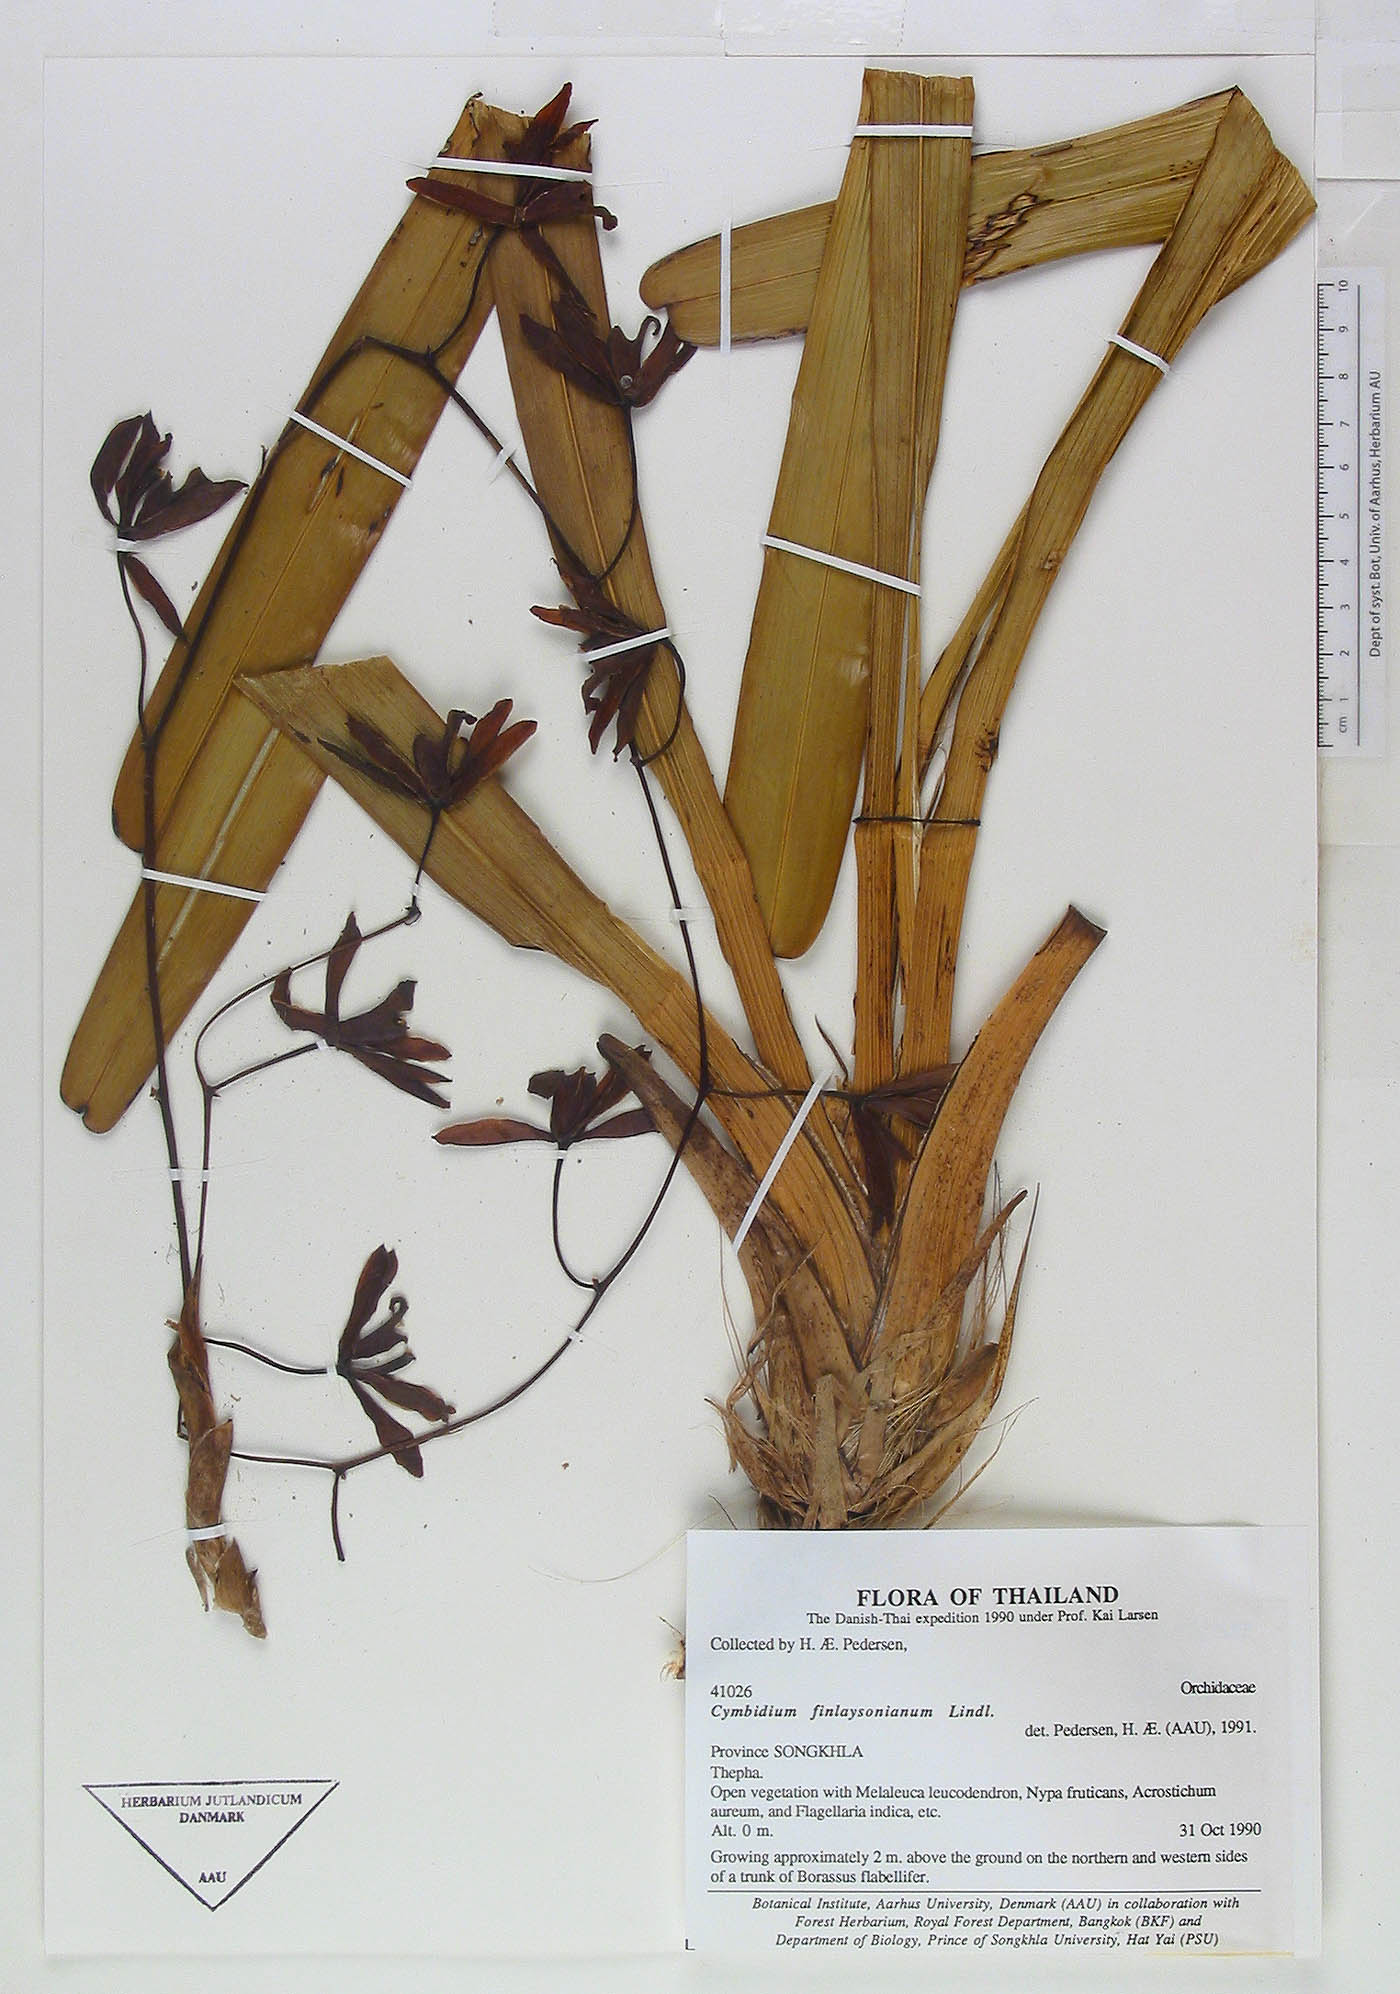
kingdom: Plantae
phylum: Tracheophyta
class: Liliopsida
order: Asparagales
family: Orchidaceae
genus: Cymbidium
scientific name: Cymbidium finlaysonianum
